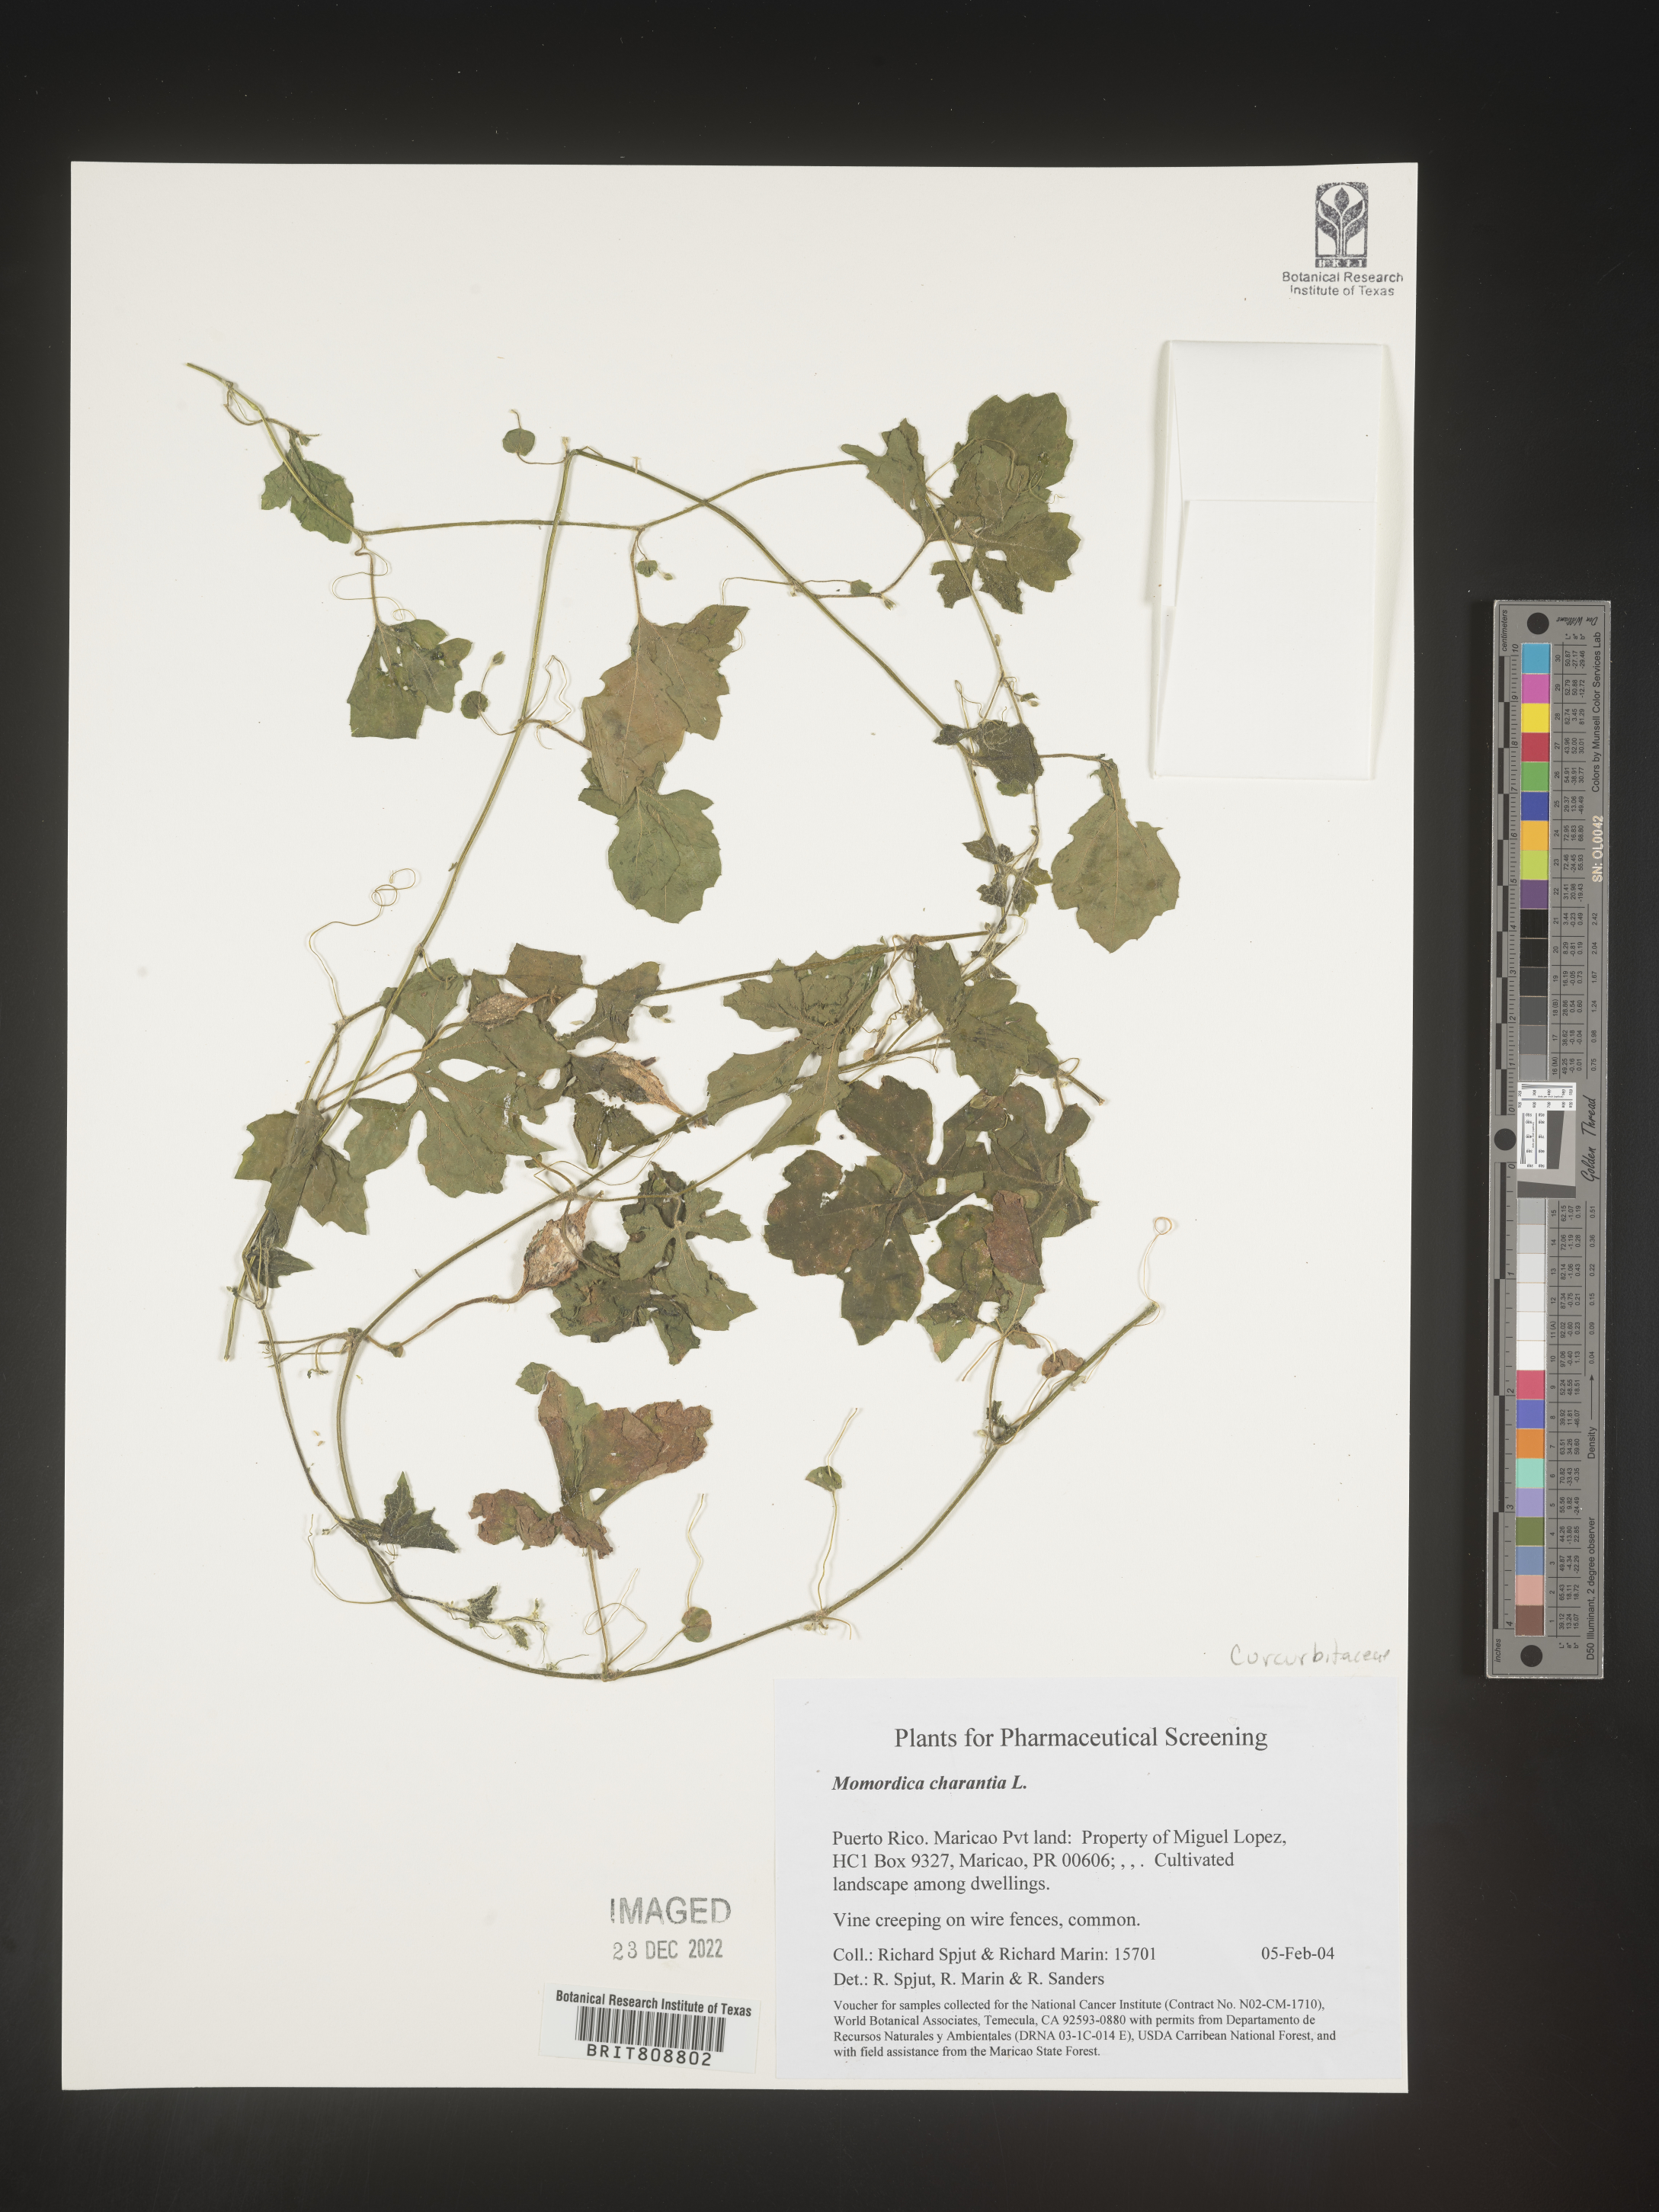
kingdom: Plantae
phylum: Tracheophyta
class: Magnoliopsida
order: Cucurbitales
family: Cucurbitaceae
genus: Momordica
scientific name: Momordica
